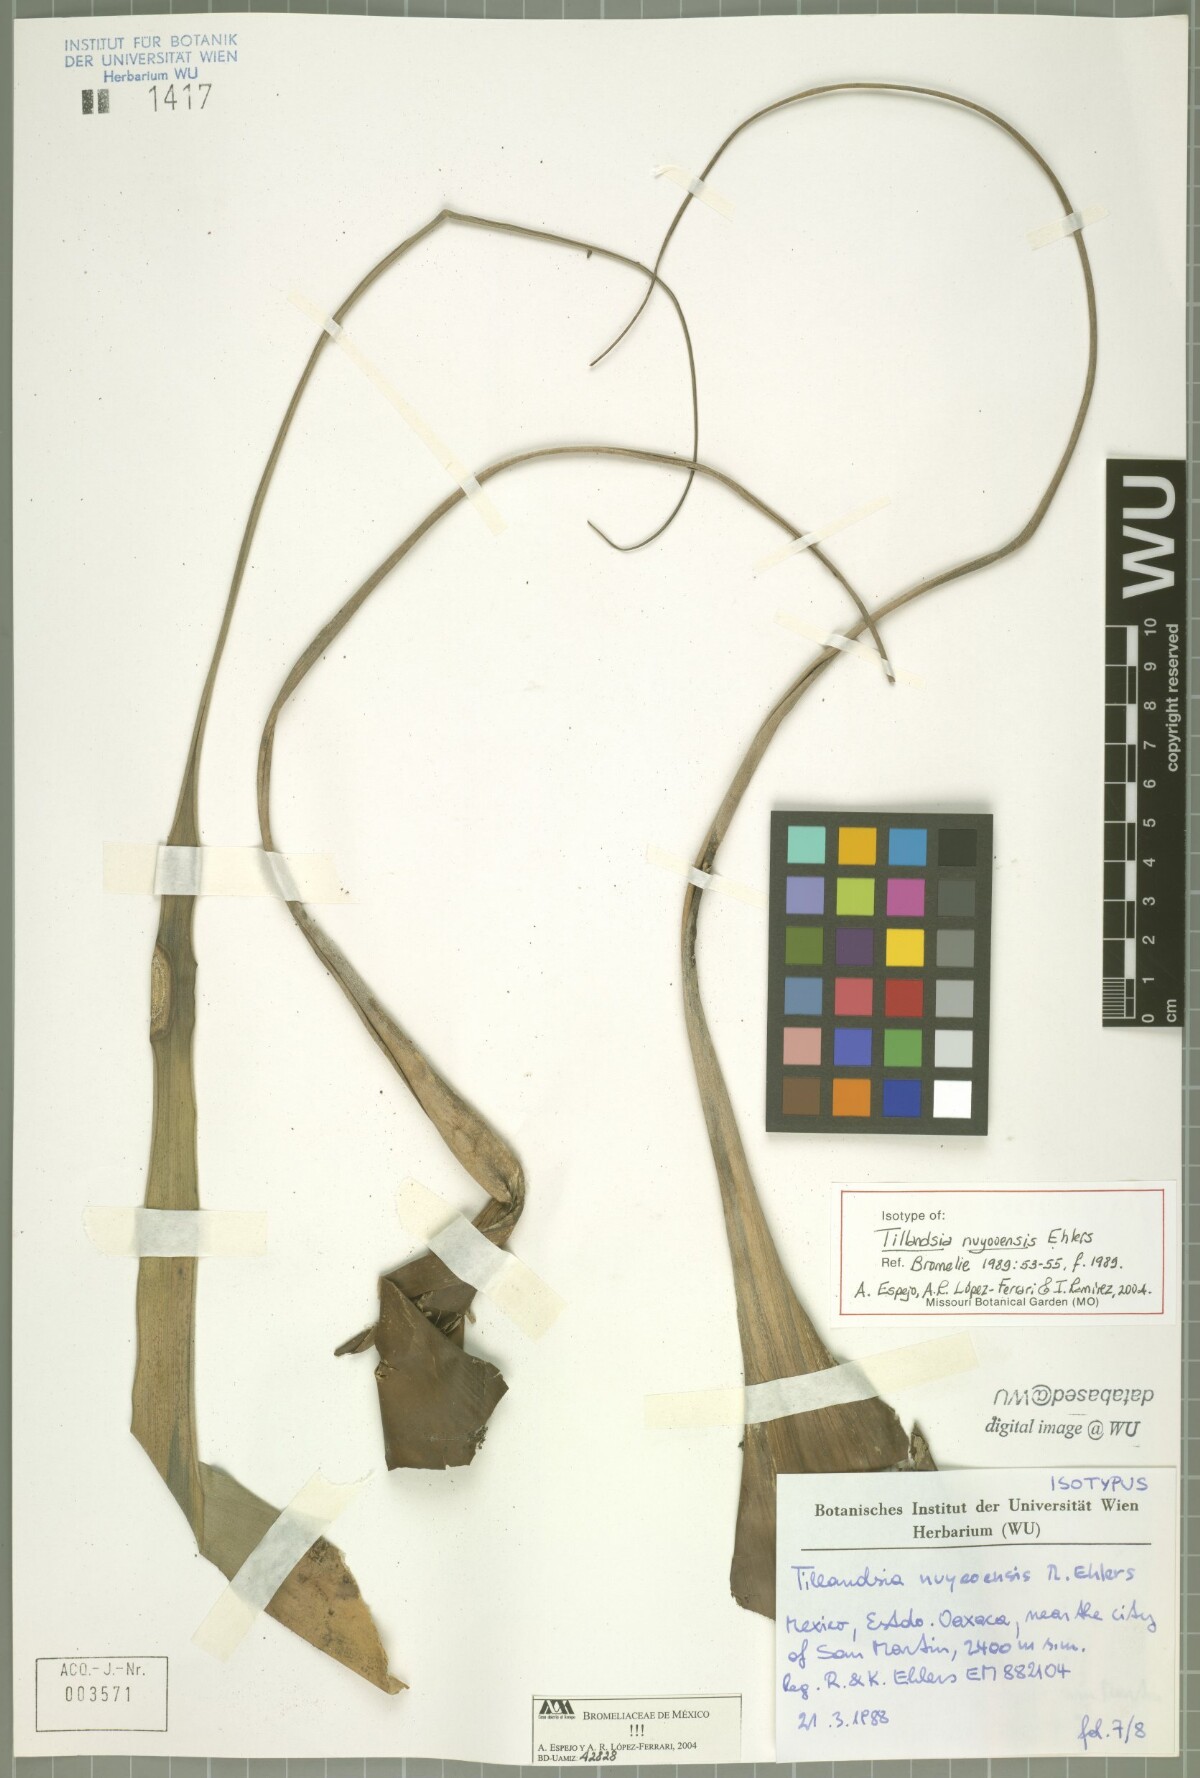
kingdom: Plantae
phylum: Tracheophyta
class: Liliopsida
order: Poales
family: Bromeliaceae
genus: Tillandsia
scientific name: Tillandsia nuyooensis
